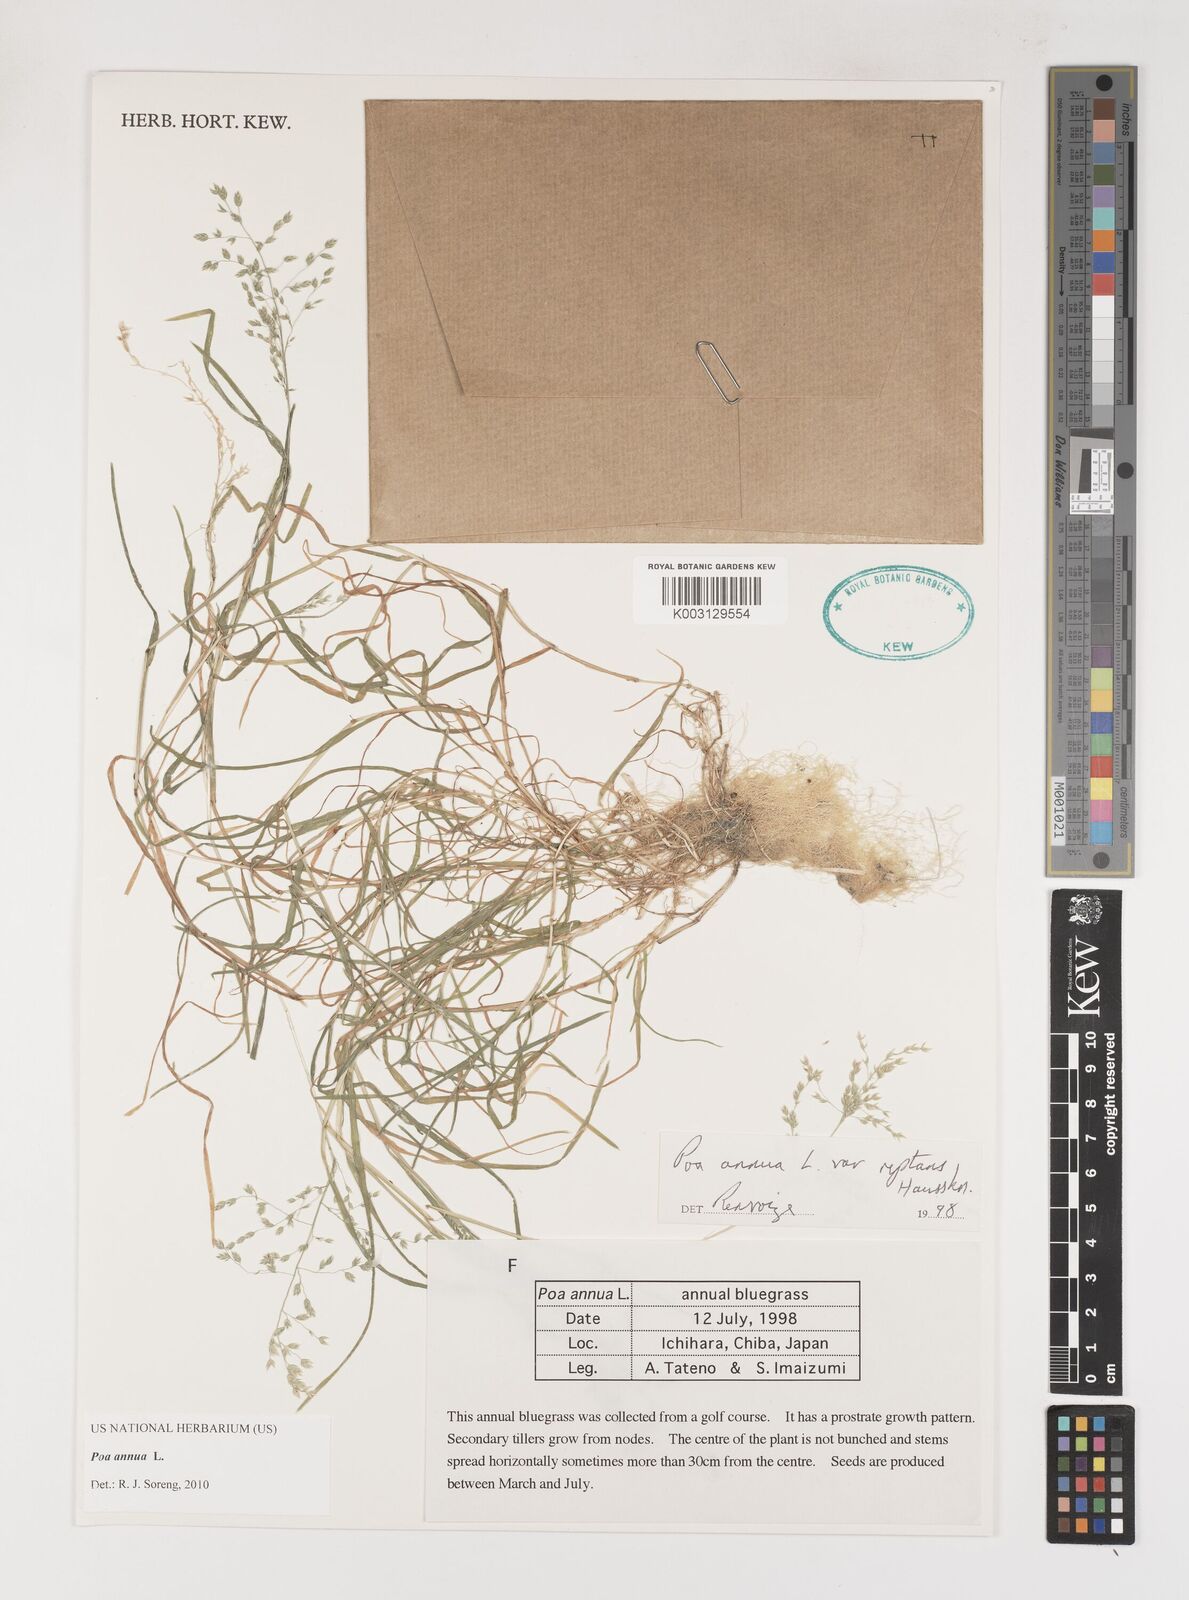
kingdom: Plantae
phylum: Tracheophyta
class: Liliopsida
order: Poales
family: Poaceae
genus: Poa
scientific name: Poa annua
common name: Annual bluegrass
